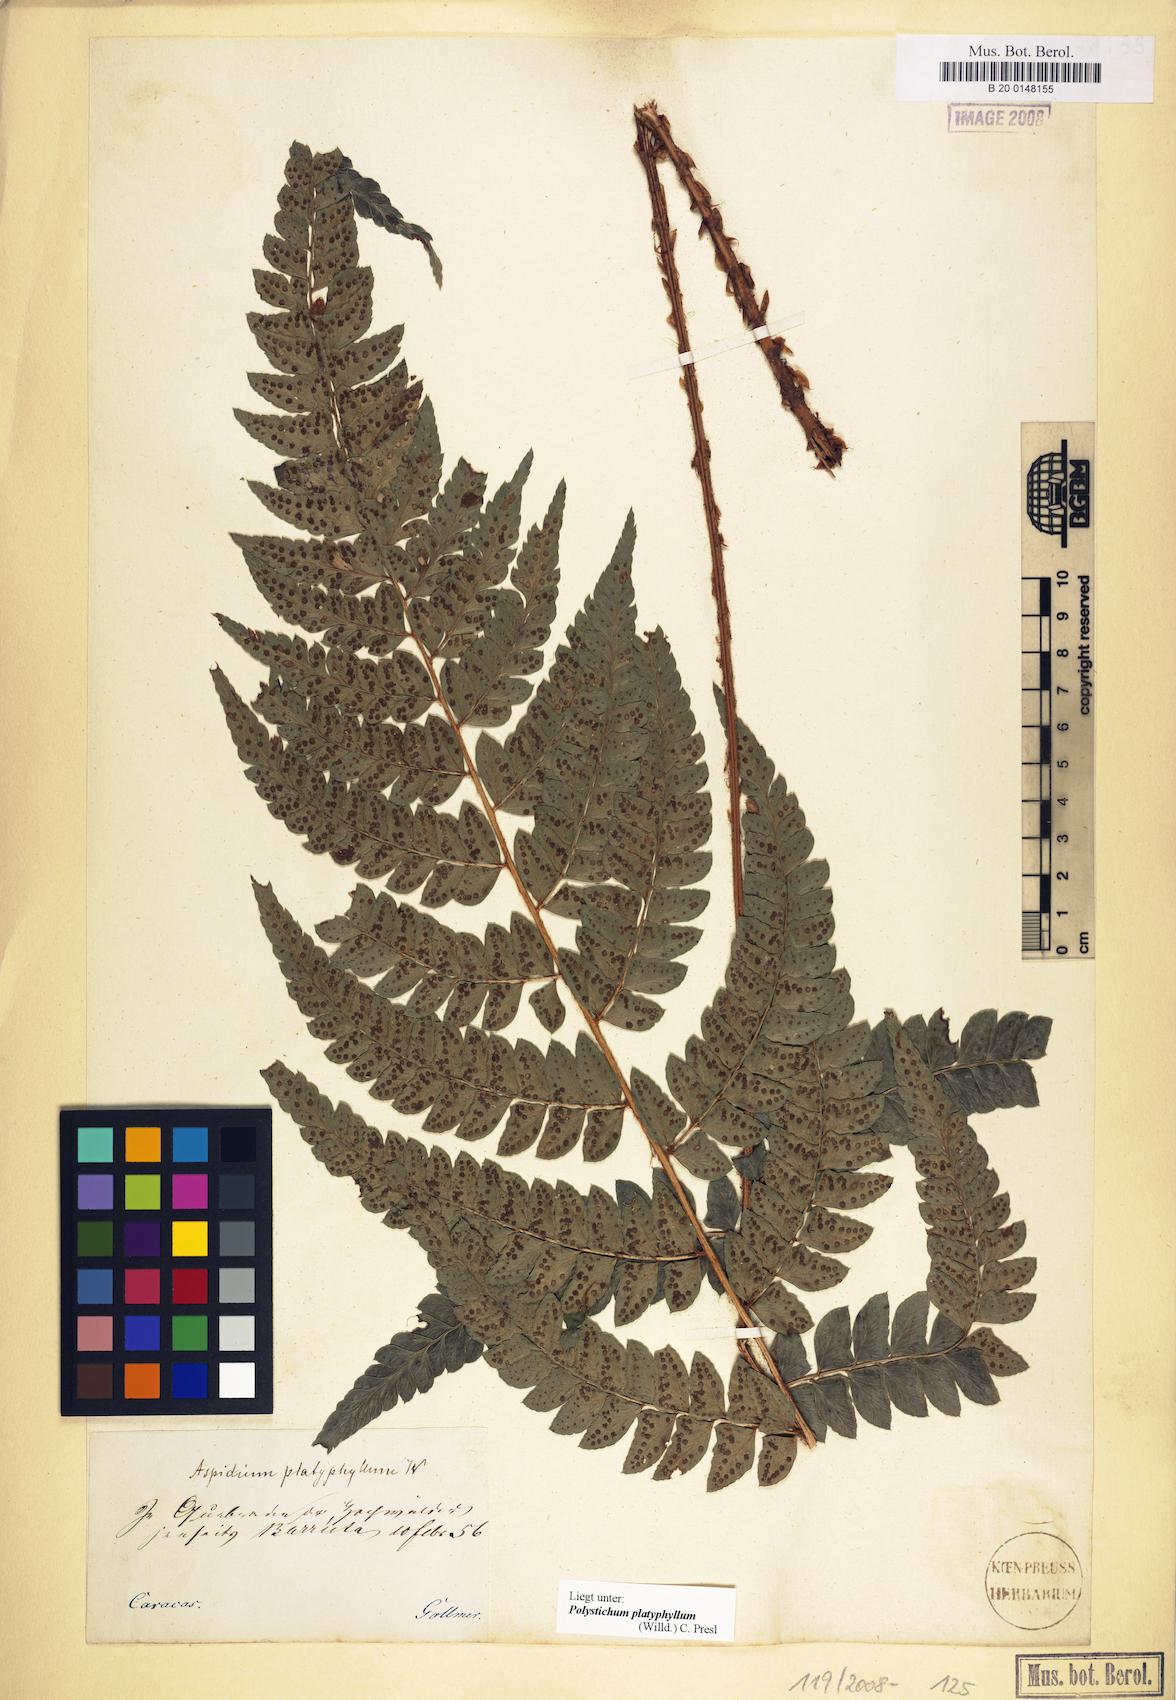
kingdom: Plantae
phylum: Tracheophyta
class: Polypodiopsida
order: Polypodiales
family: Dryopteridaceae
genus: Polystichum
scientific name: Polystichum platyphyllum
